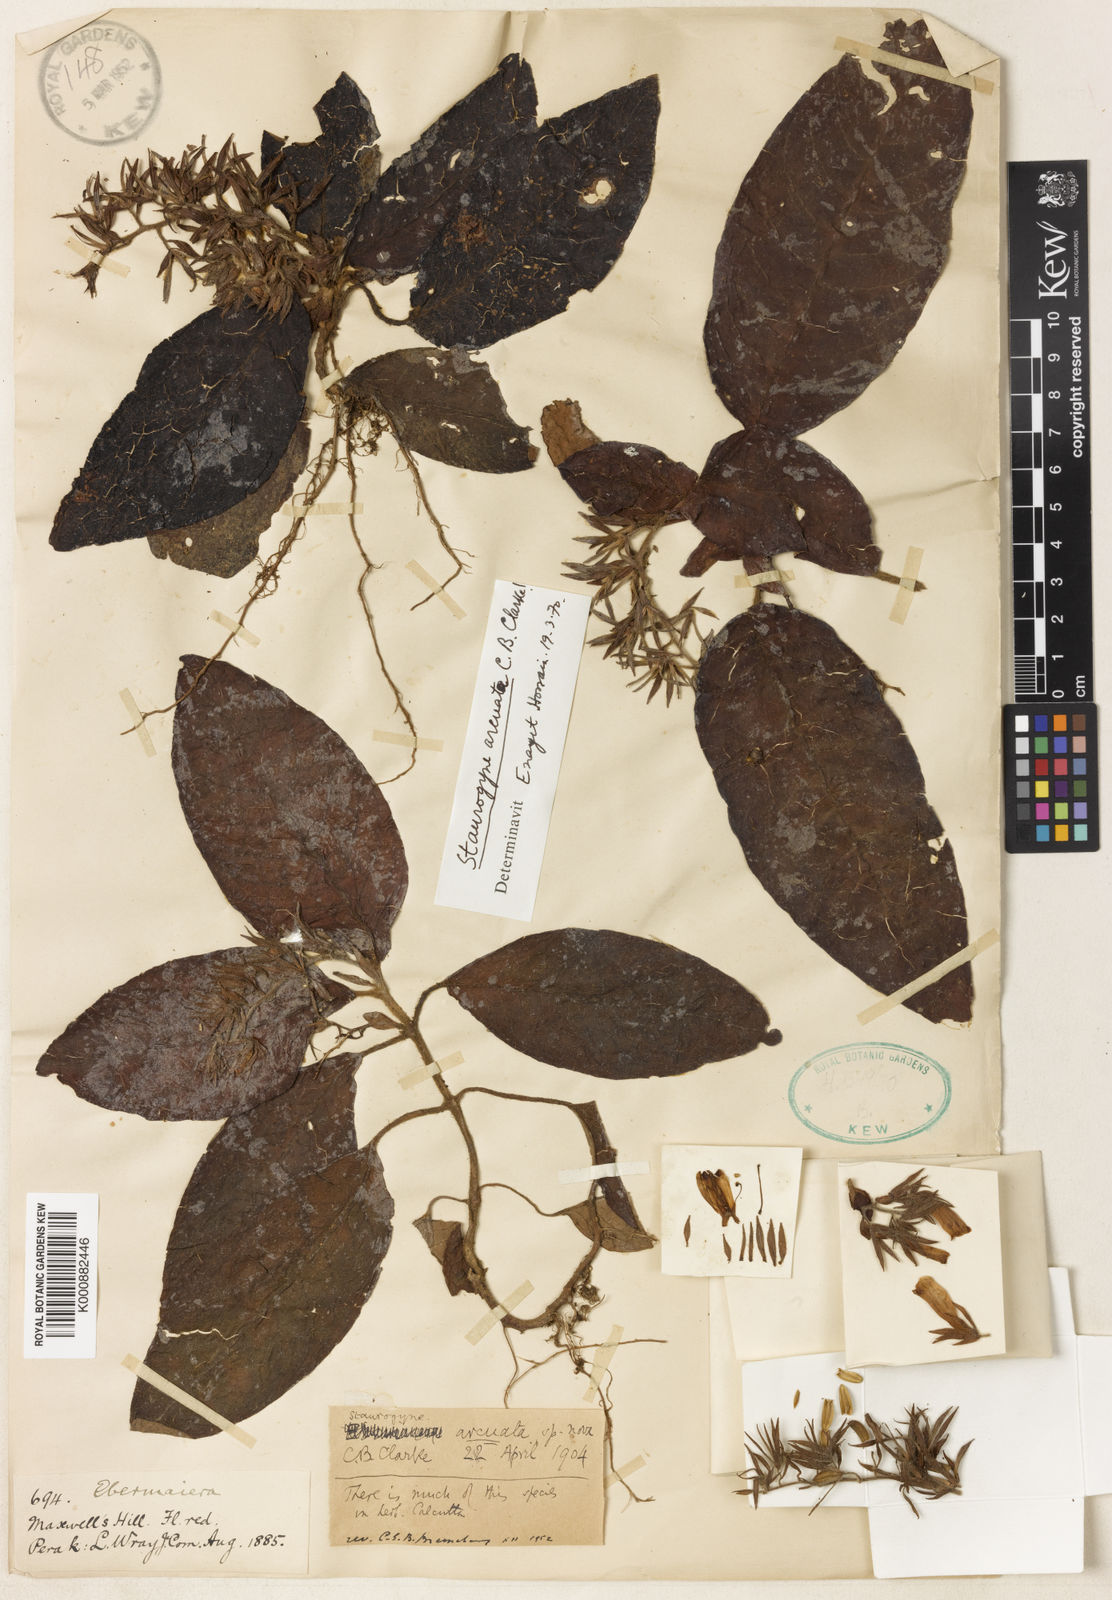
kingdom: Plantae
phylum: Tracheophyta
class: Magnoliopsida
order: Lamiales
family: Acanthaceae
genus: Staurogyne
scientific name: Staurogyne arcuata
